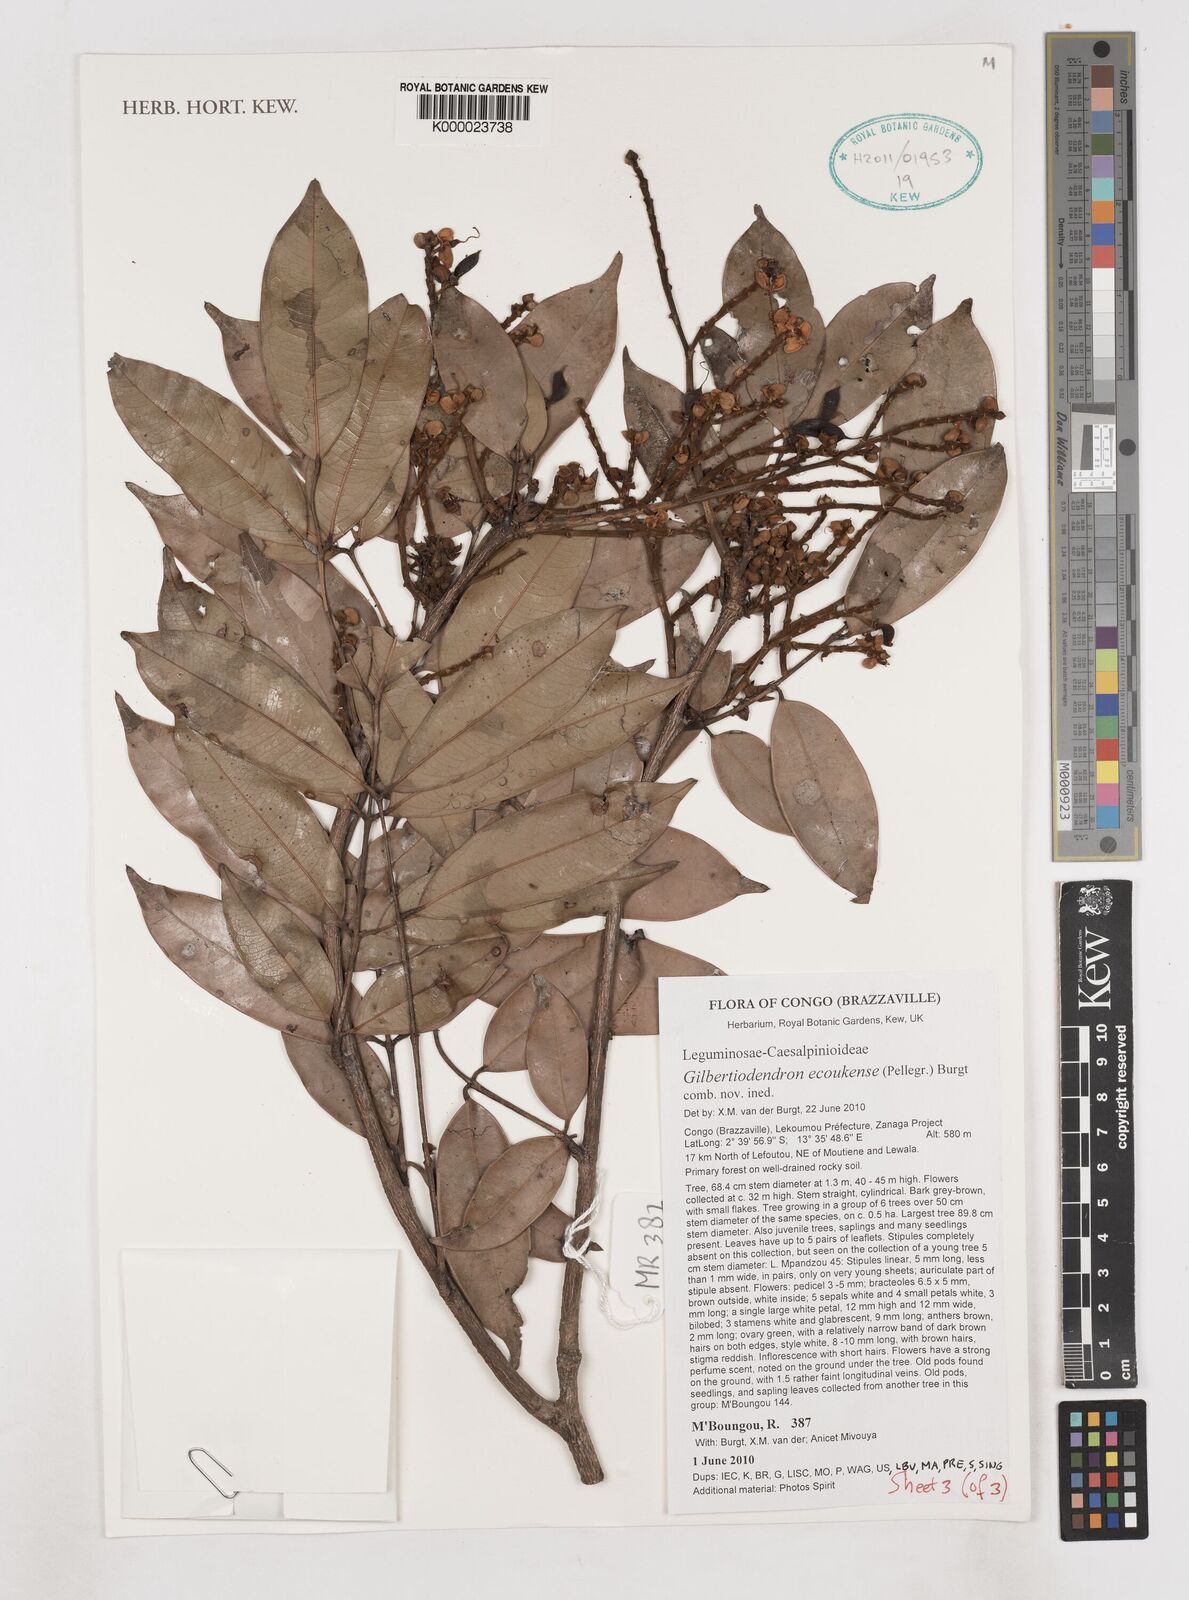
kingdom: Plantae
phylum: Tracheophyta
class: Magnoliopsida
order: Fabales
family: Fabaceae
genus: Gilbertiodendron
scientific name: Gilbertiodendron ecoukense
